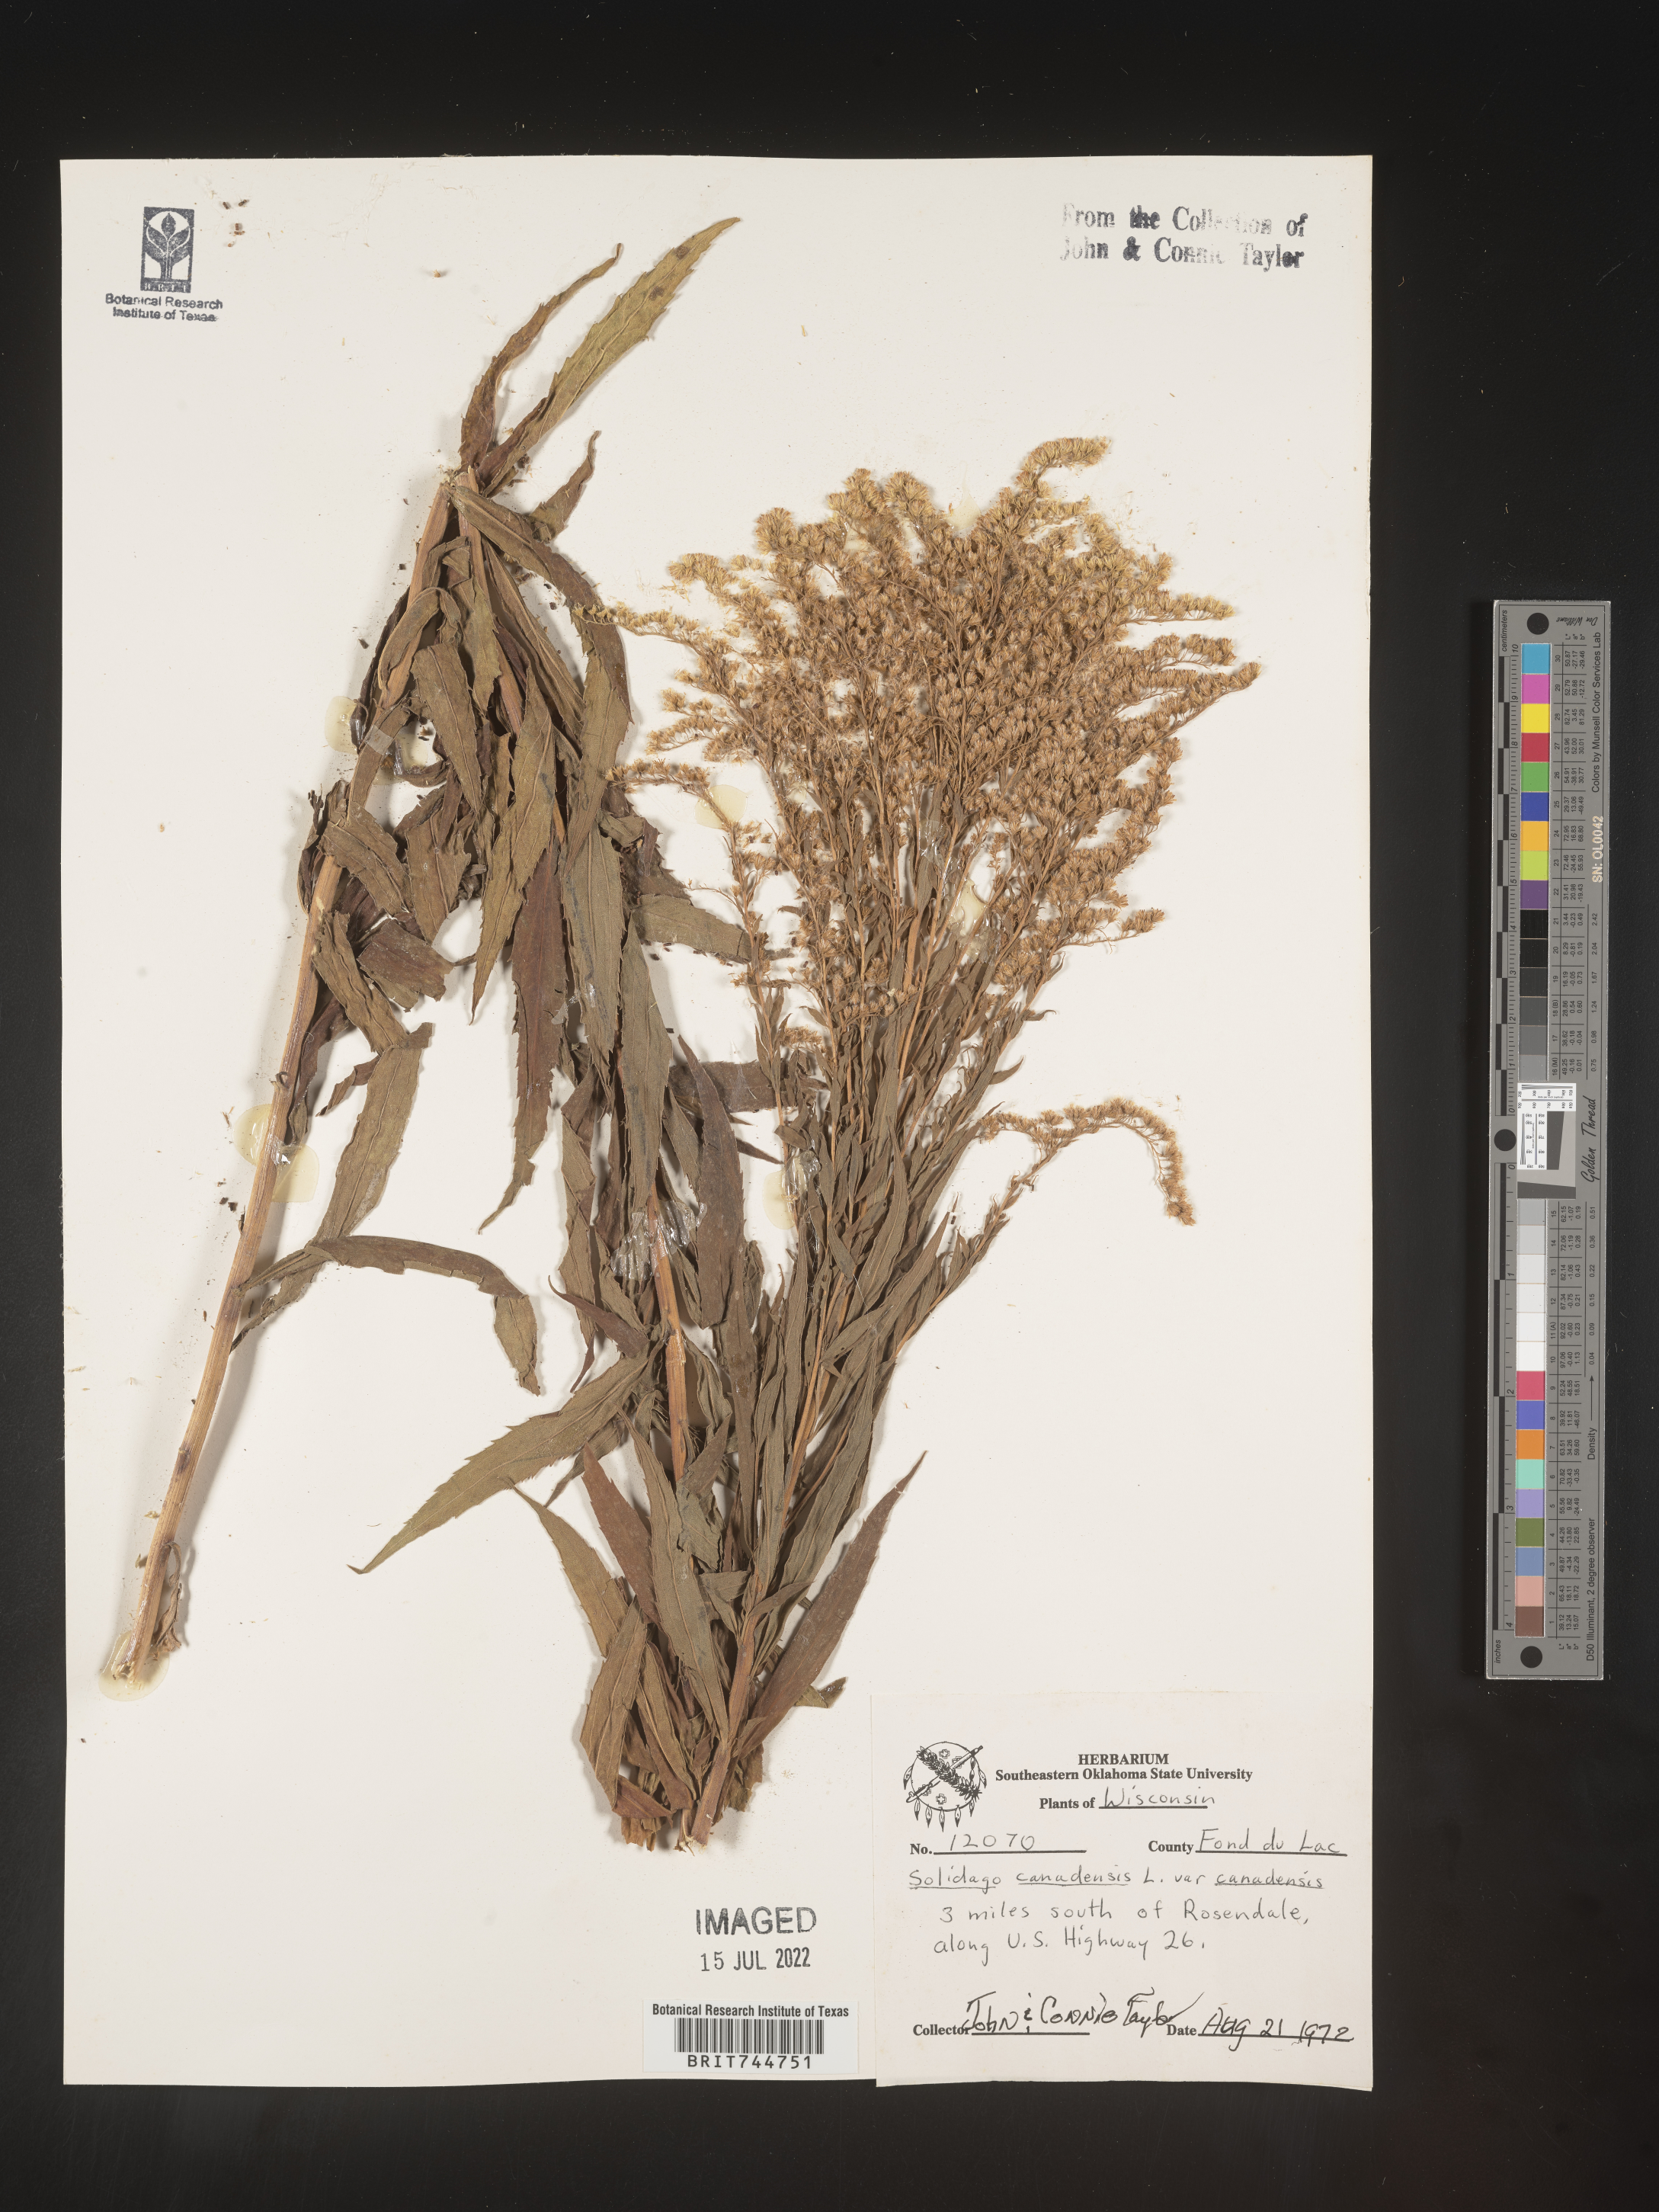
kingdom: Plantae
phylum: Tracheophyta
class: Magnoliopsida
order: Asterales
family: Asteraceae
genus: Solidago
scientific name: Solidago canadensis
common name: Canada goldenrod
